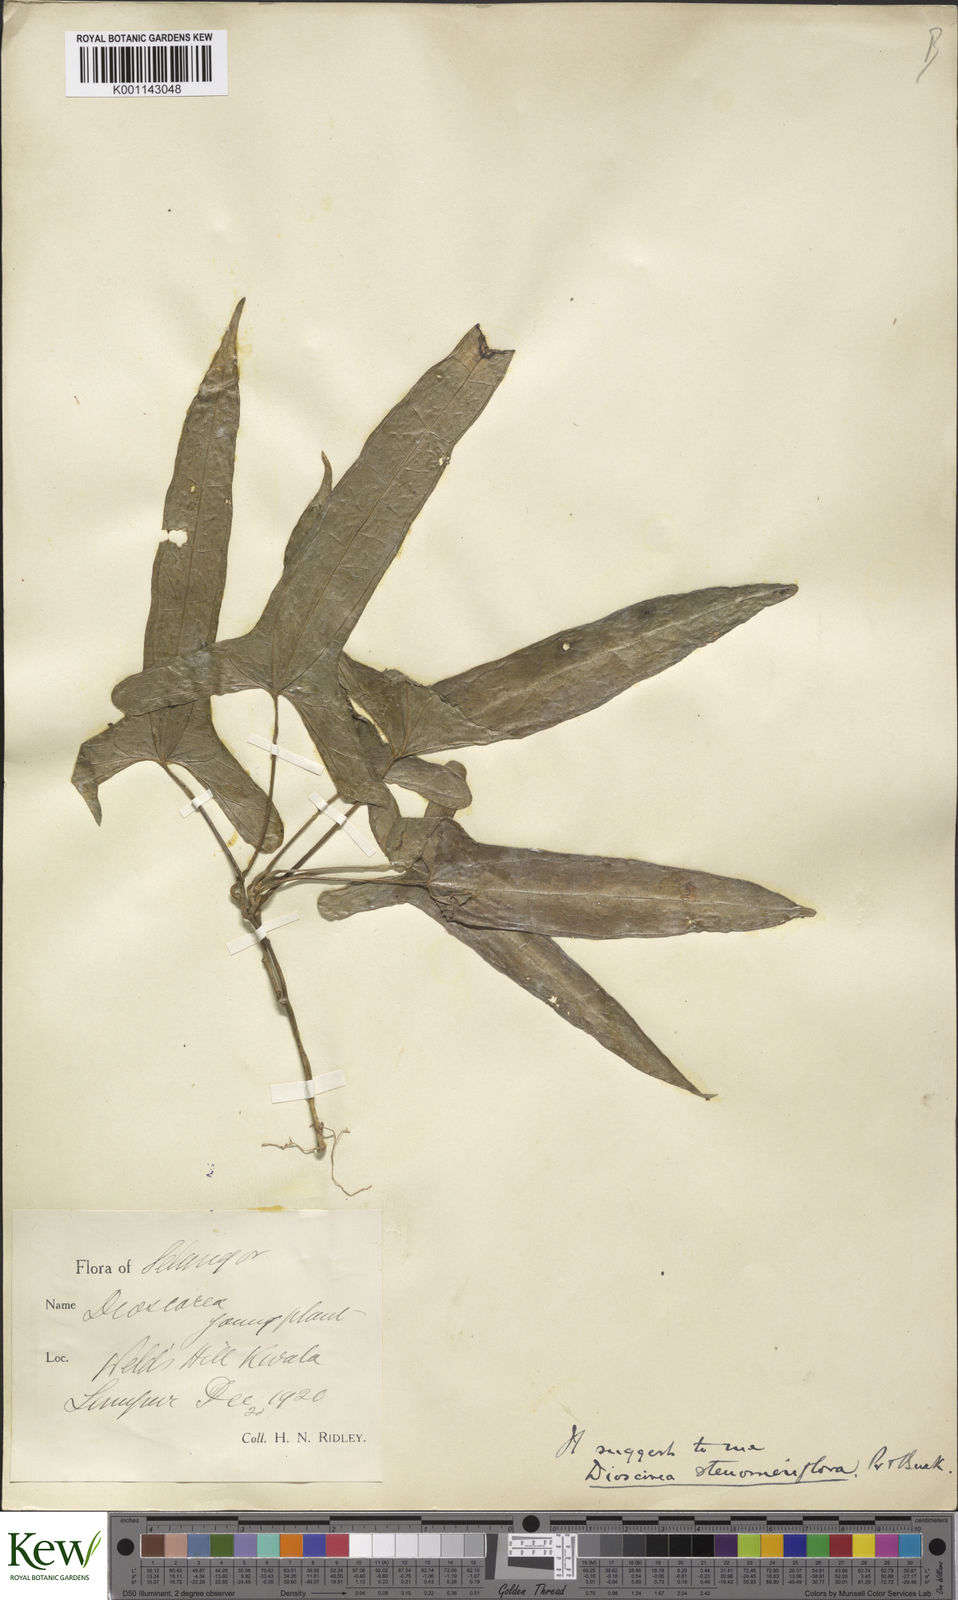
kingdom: Plantae
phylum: Tracheophyta
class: Liliopsida
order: Dioscoreales
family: Dioscoreaceae
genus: Dioscorea
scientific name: Dioscorea stenomeriflora
